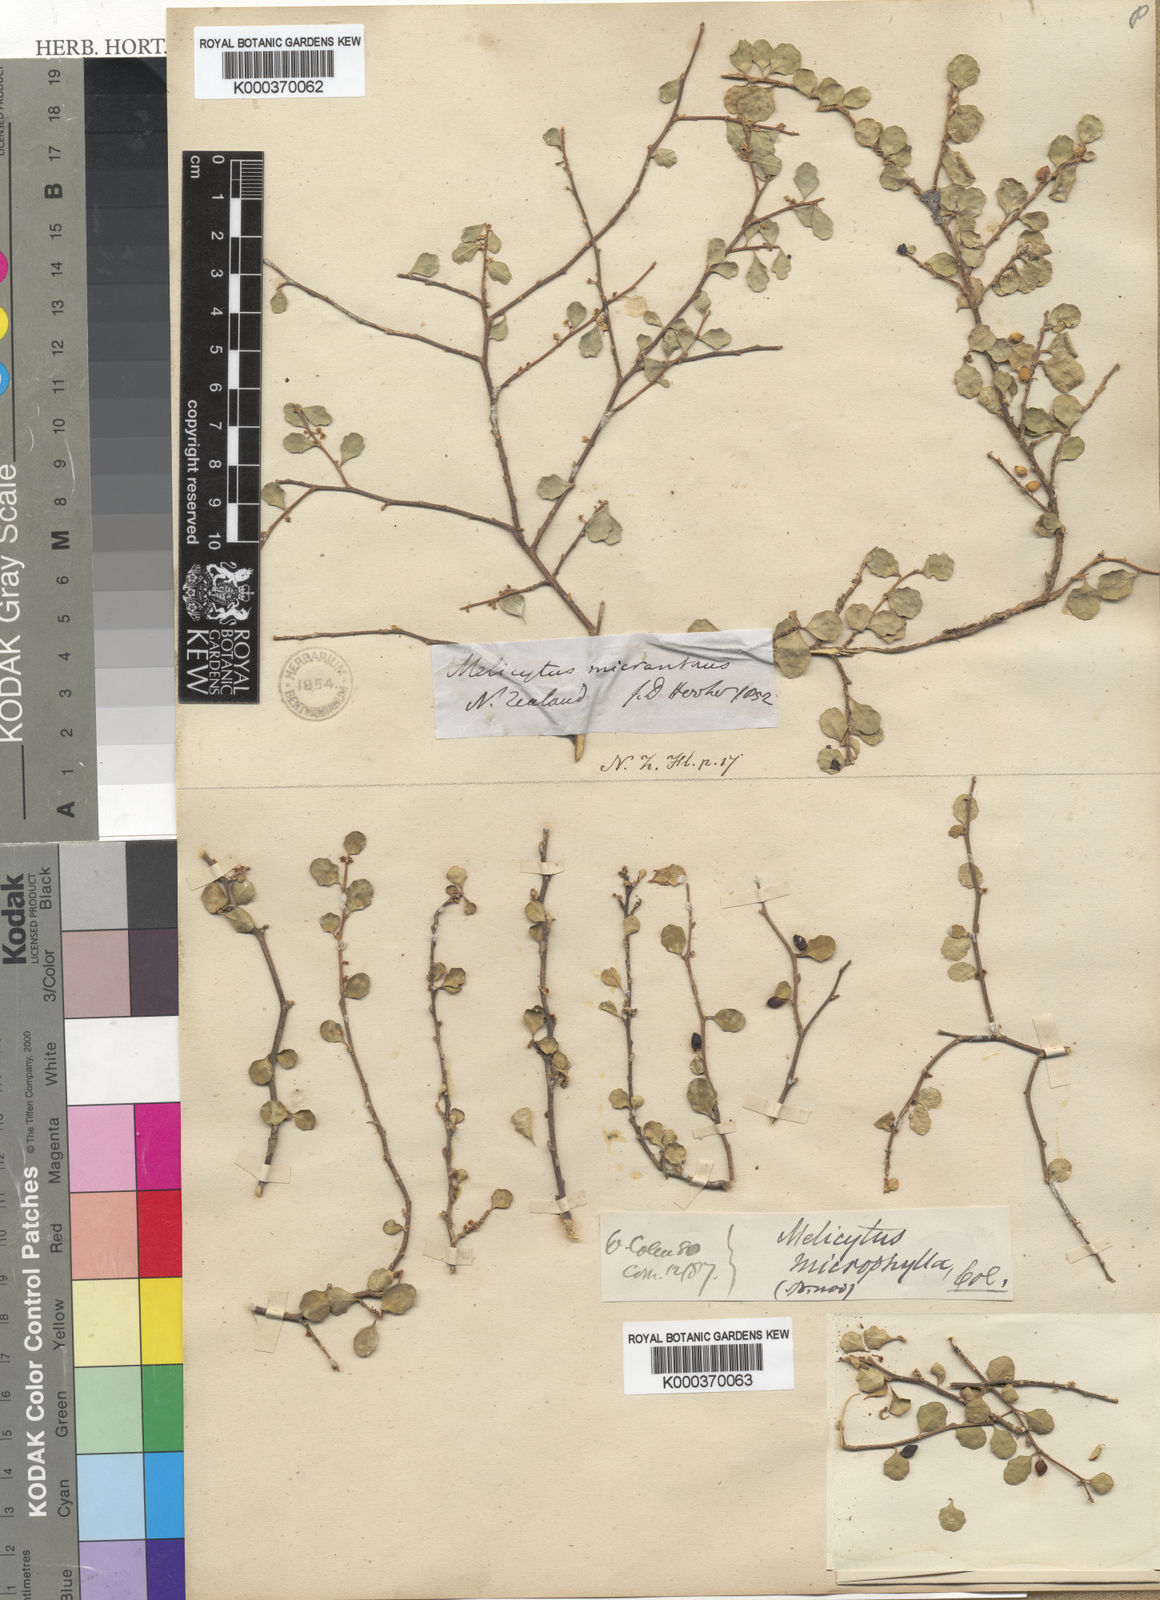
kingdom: Plantae
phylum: Tracheophyta
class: Magnoliopsida
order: Malpighiales
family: Violaceae
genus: Melicytus
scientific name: Melicytus micranthus
